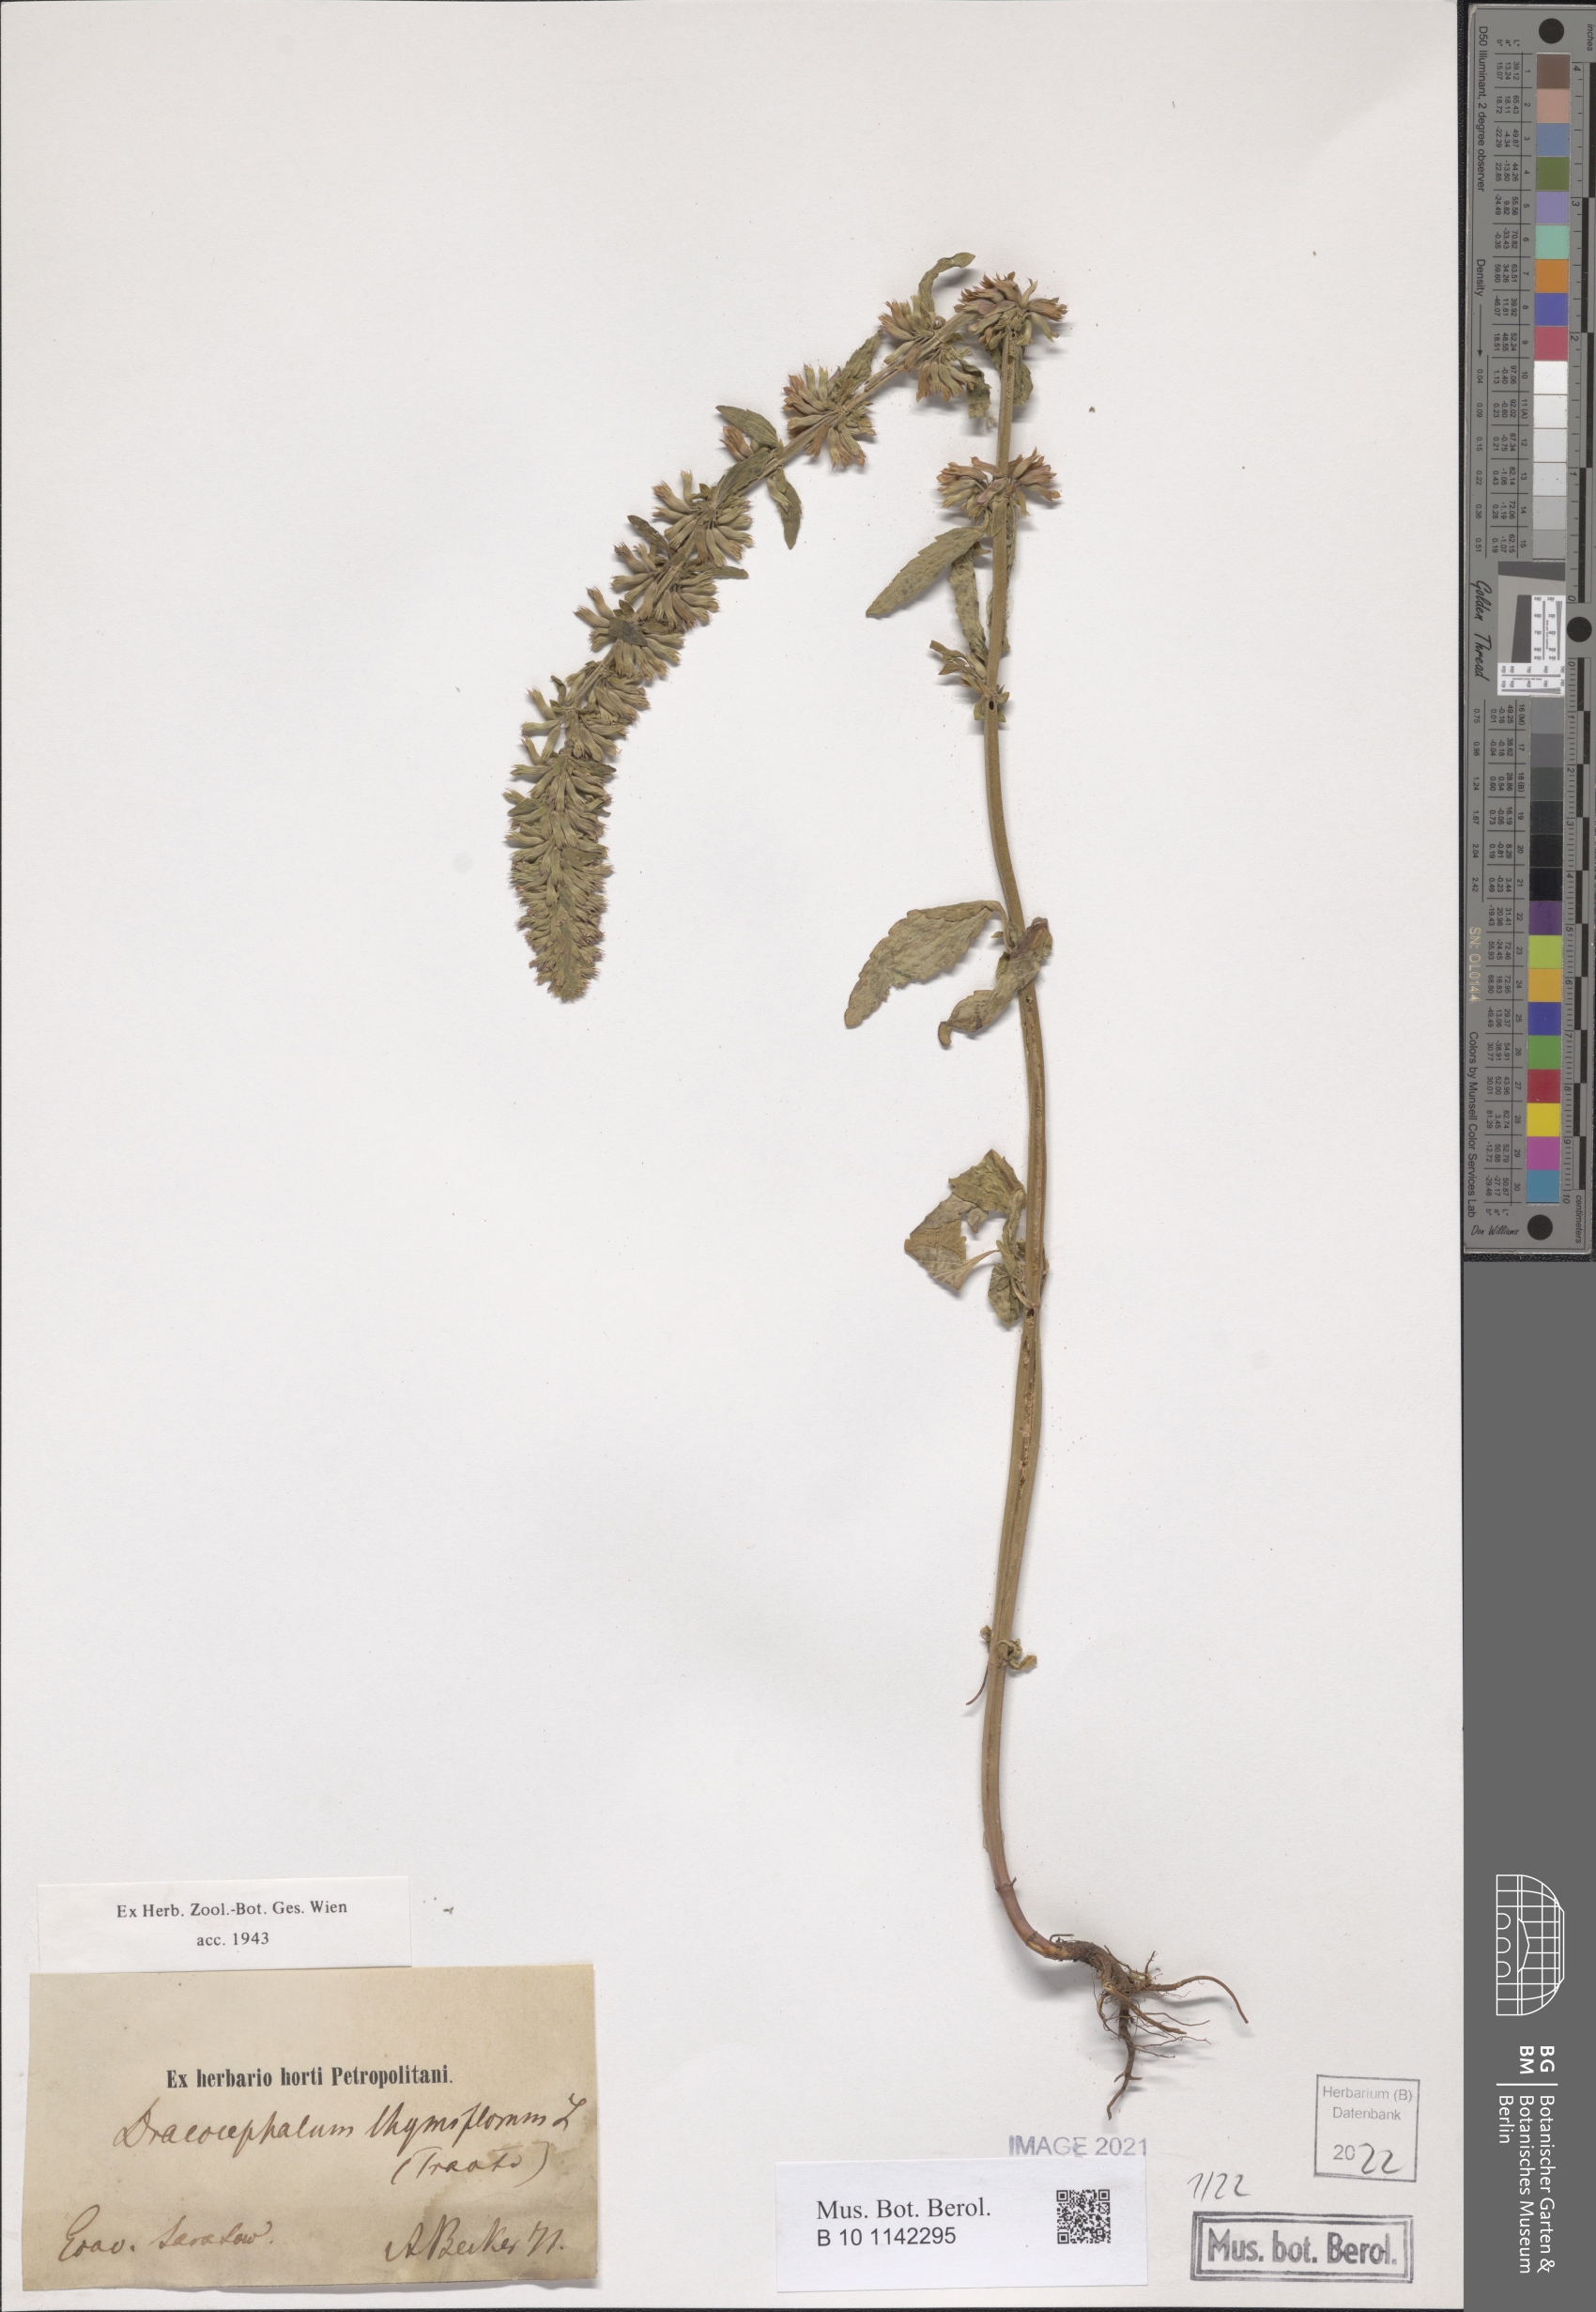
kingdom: Plantae
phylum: Tracheophyta
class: Magnoliopsida
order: Lamiales
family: Lamiaceae
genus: Dracocephalum
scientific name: Dracocephalum thymiflorum
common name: Thymeleaf dragonhead
